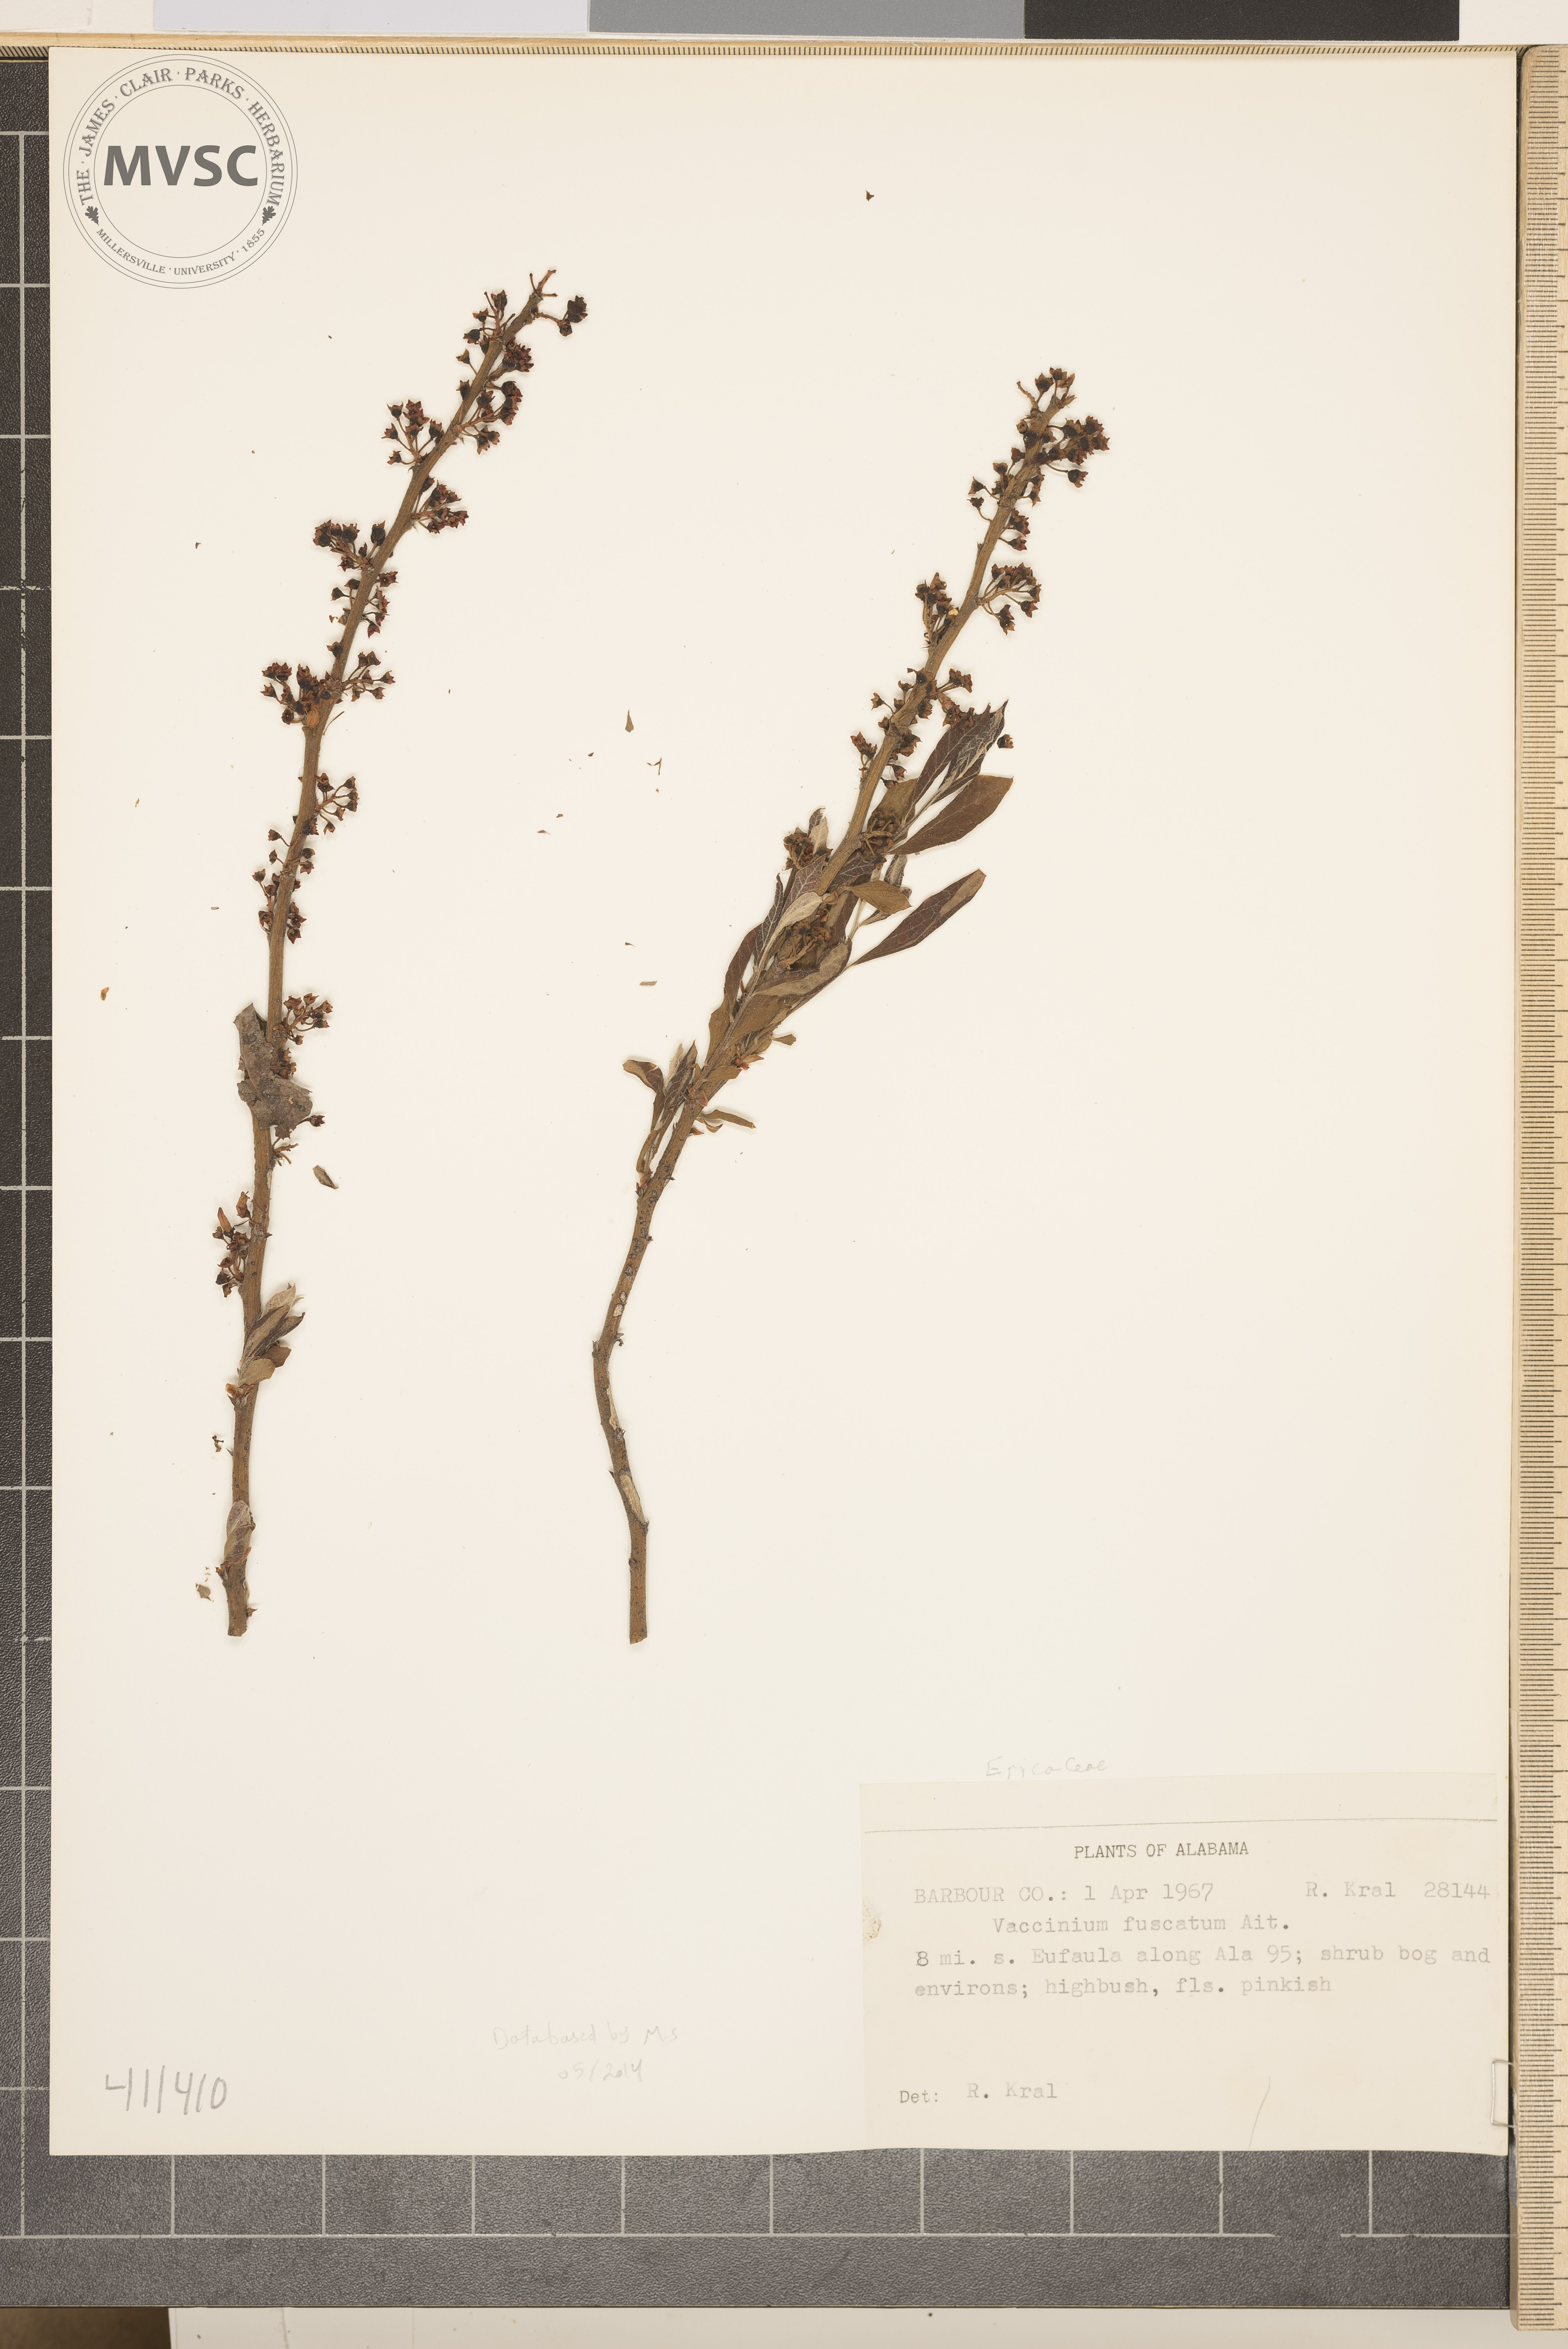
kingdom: Plantae
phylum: Tracheophyta
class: Magnoliopsida
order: Ericales
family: Ericaceae
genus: Vaccinium
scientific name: Vaccinium corymbosum
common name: Blueberry
